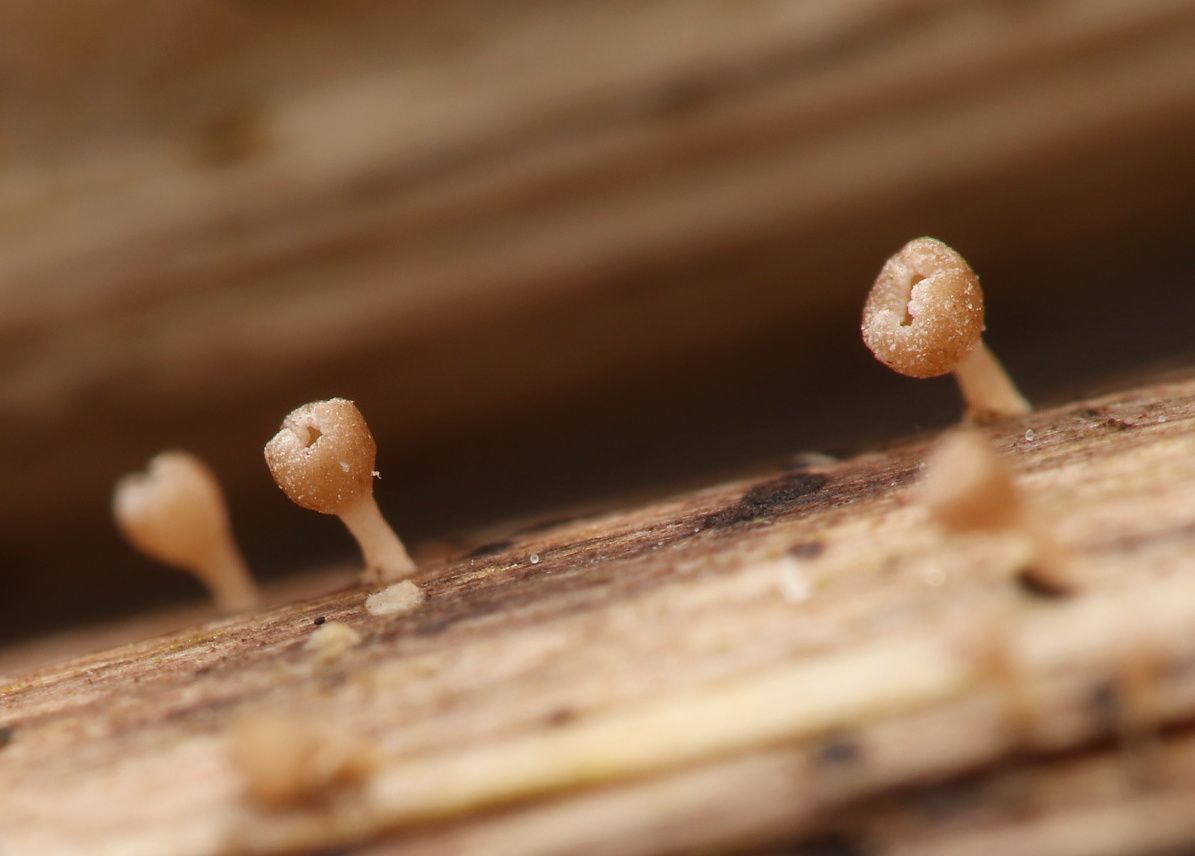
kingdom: Fungi
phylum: Ascomycota
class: Leotiomycetes
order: Helotiales
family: Helotiaceae
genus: Cyathicula
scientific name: Cyathicula cyathoidea
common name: pokal-stilkskive
